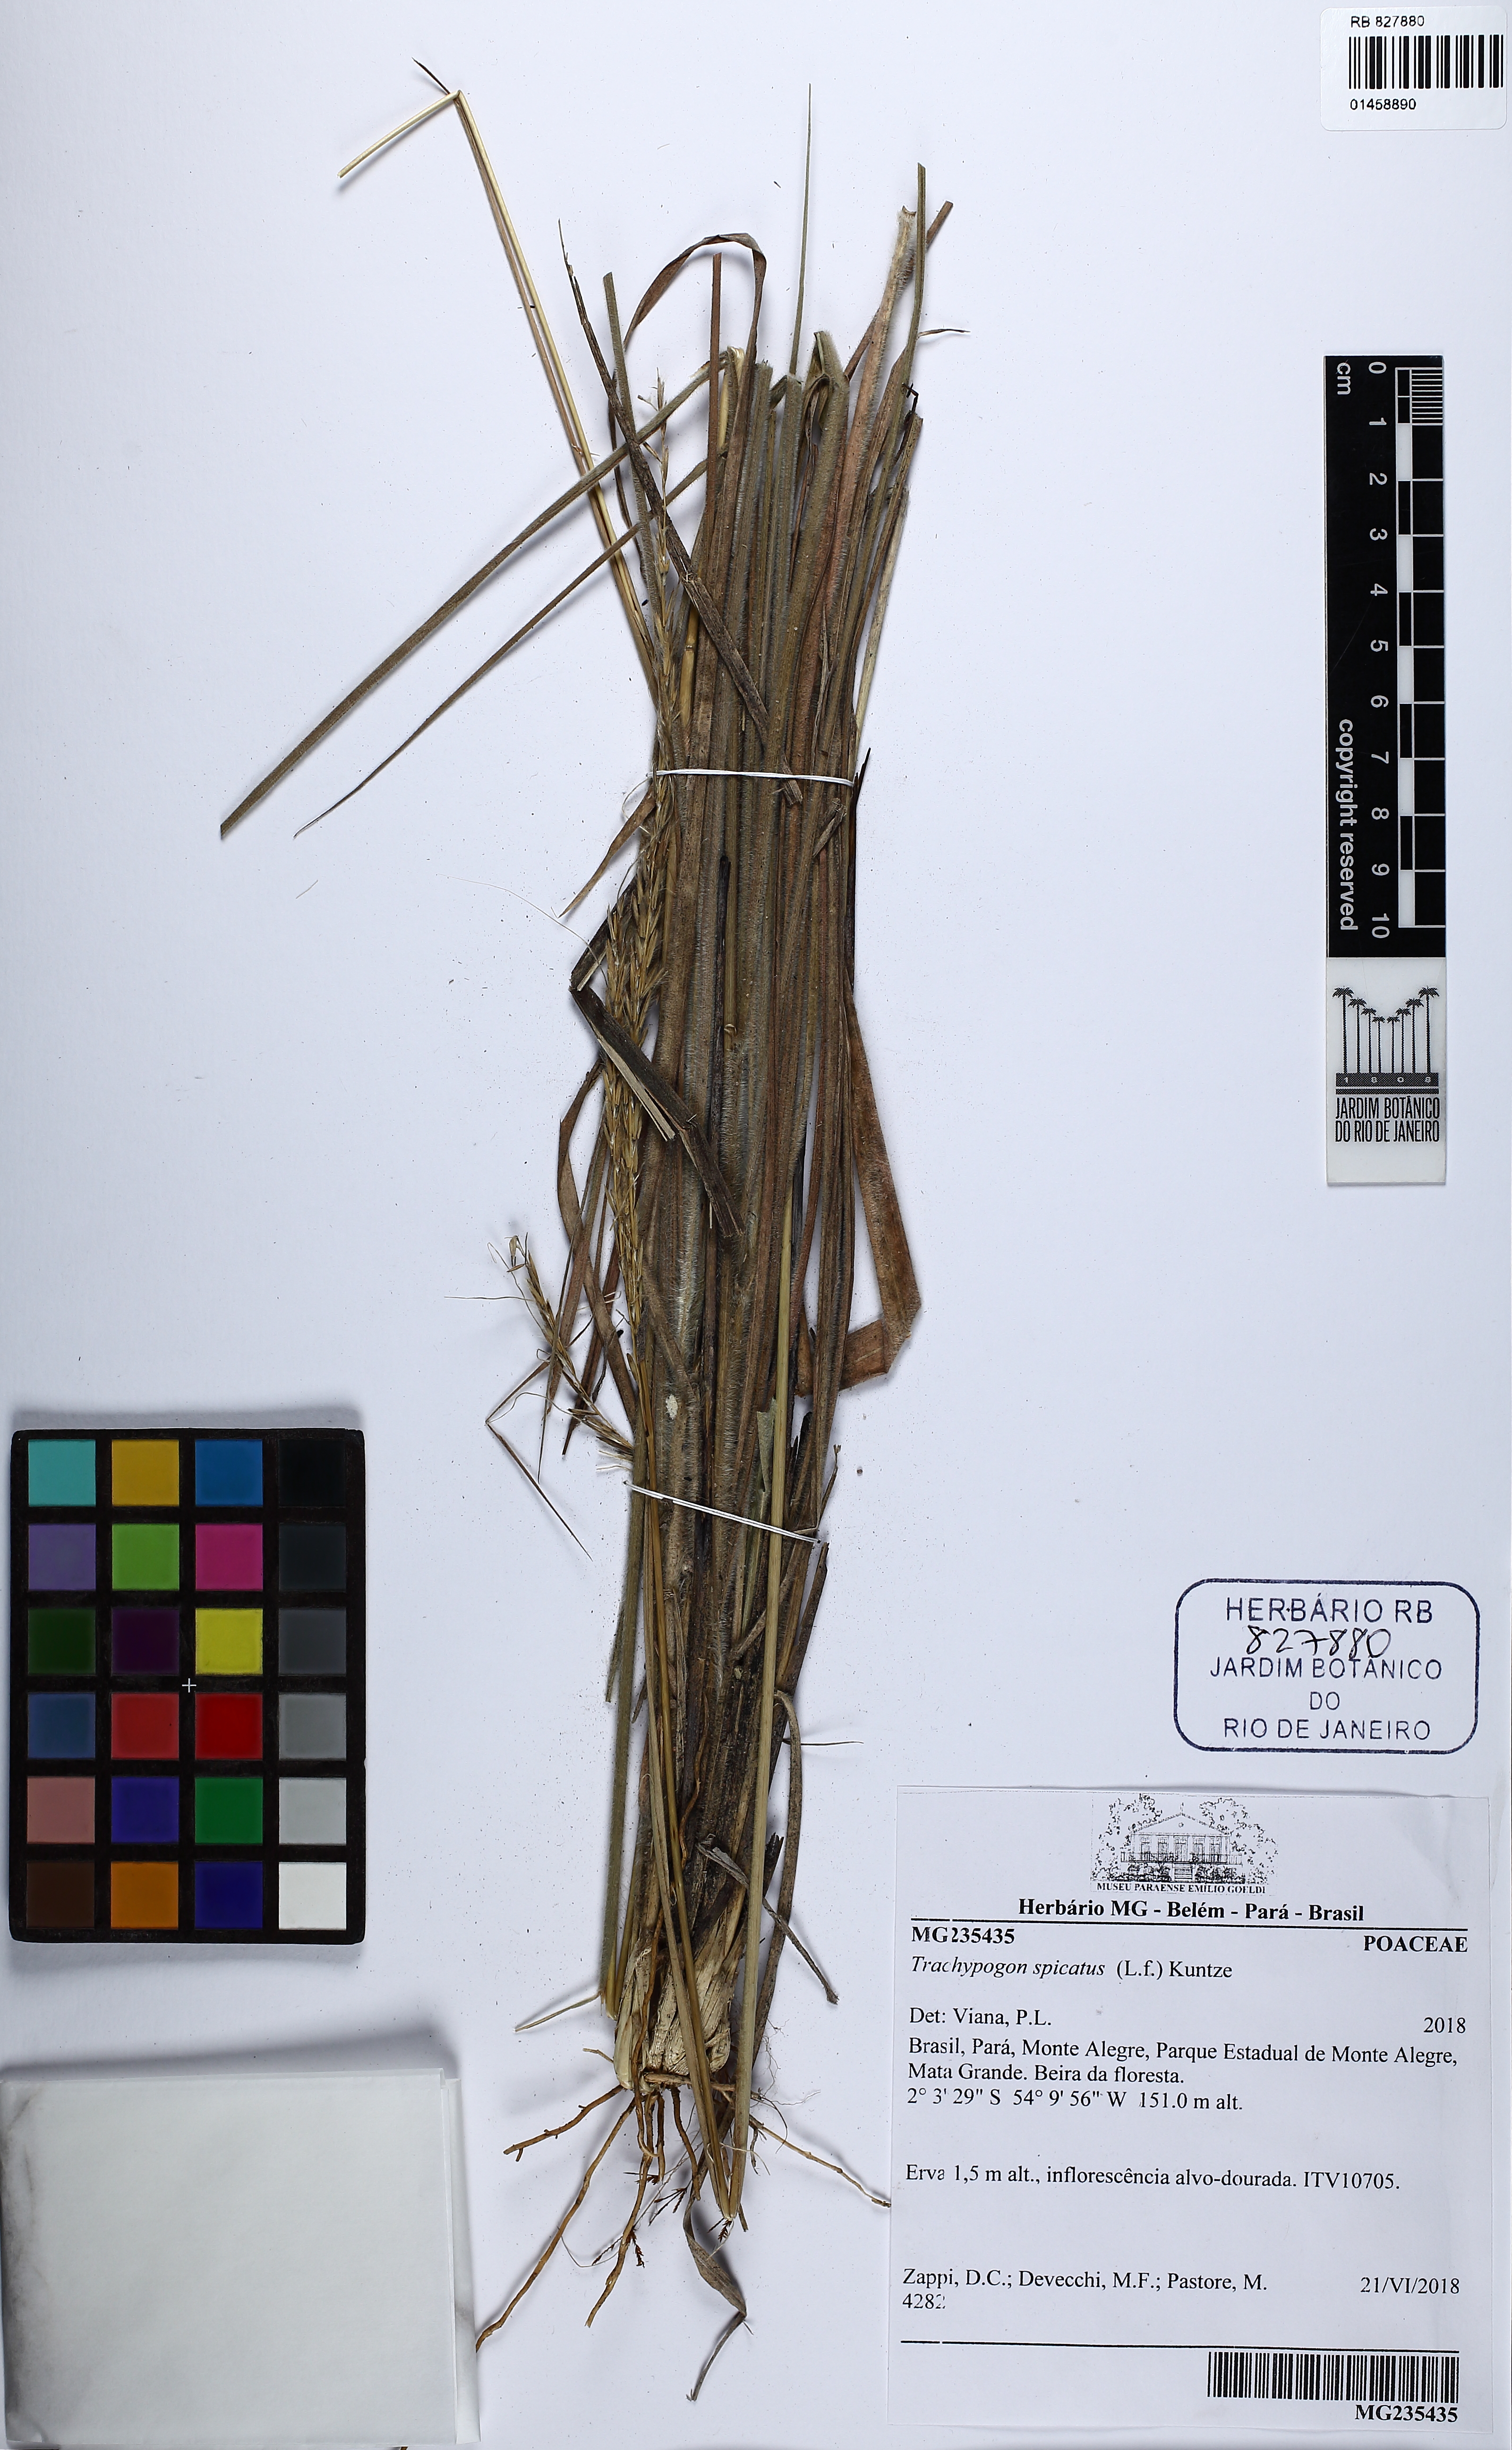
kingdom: Plantae
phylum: Tracheophyta
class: Liliopsida
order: Poales
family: Poaceae
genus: Trachypogon
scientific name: Trachypogon spicatus
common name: Crinkle-awn
